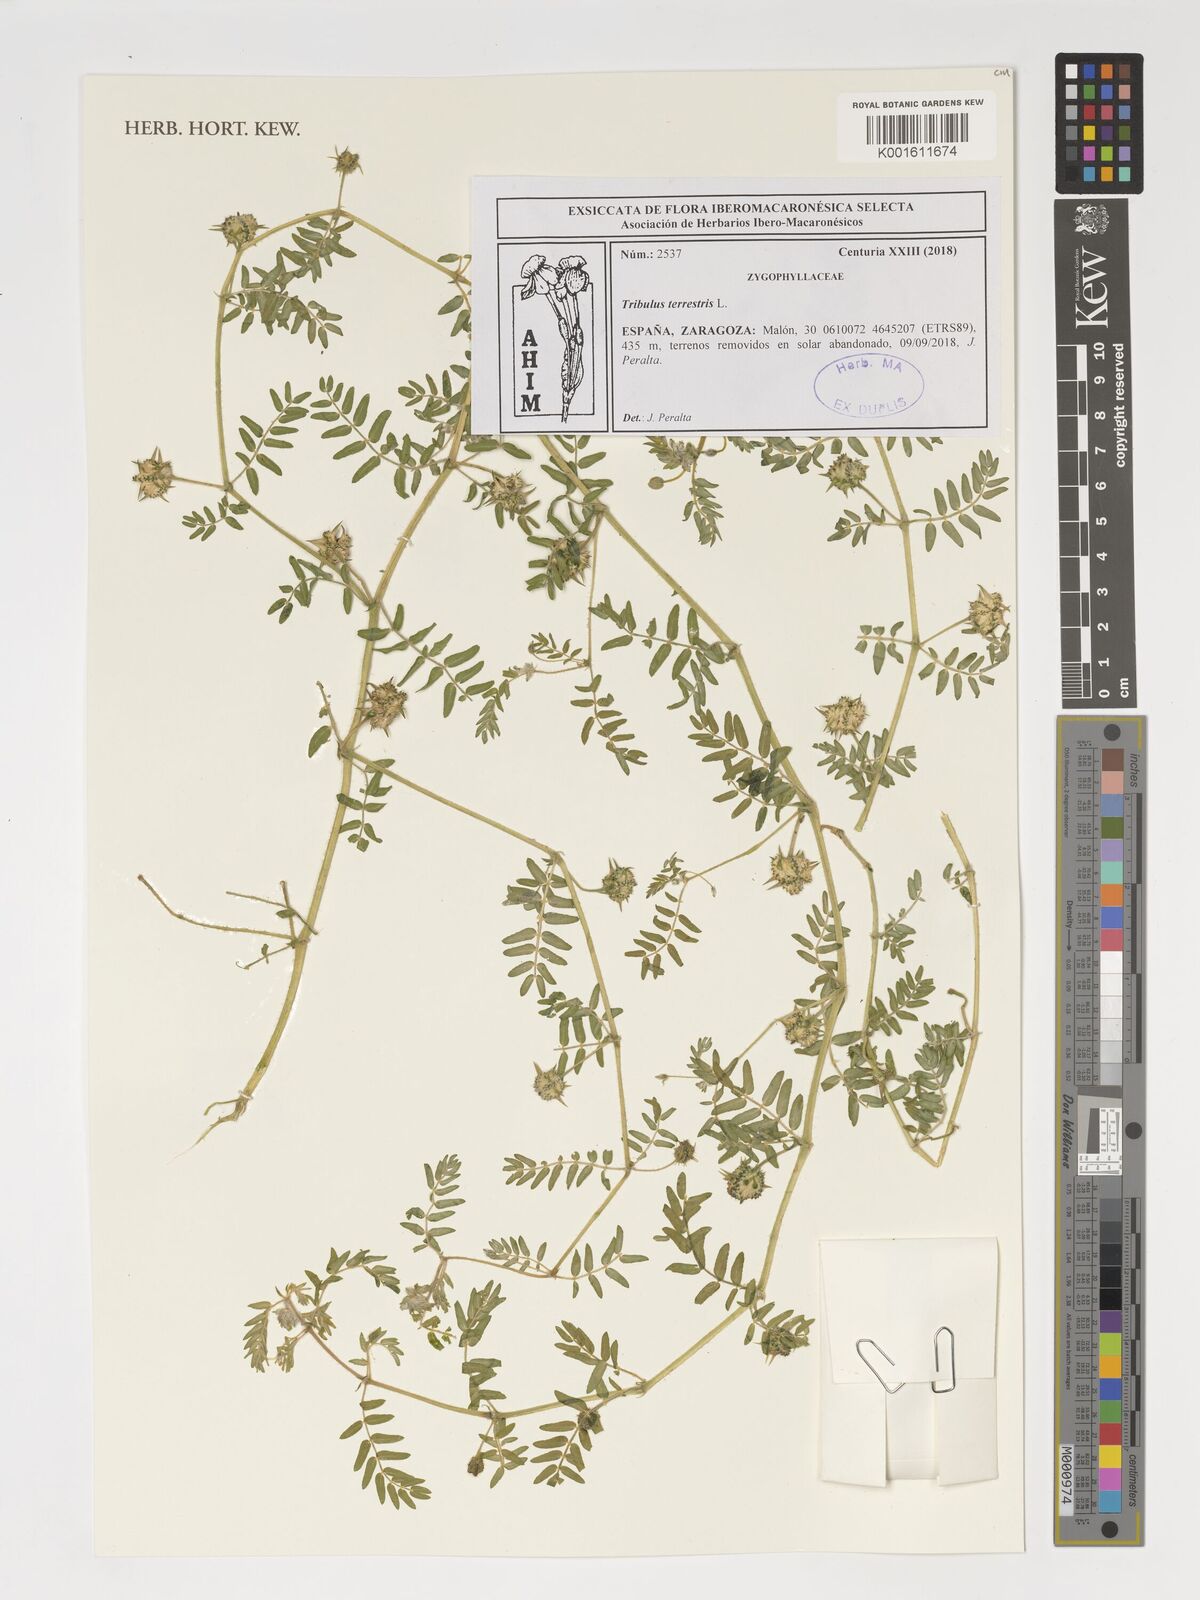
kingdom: Plantae
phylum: Tracheophyta
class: Magnoliopsida
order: Zygophyllales
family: Zygophyllaceae
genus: Tribulus
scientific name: Tribulus terrestris
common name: Puncturevine
